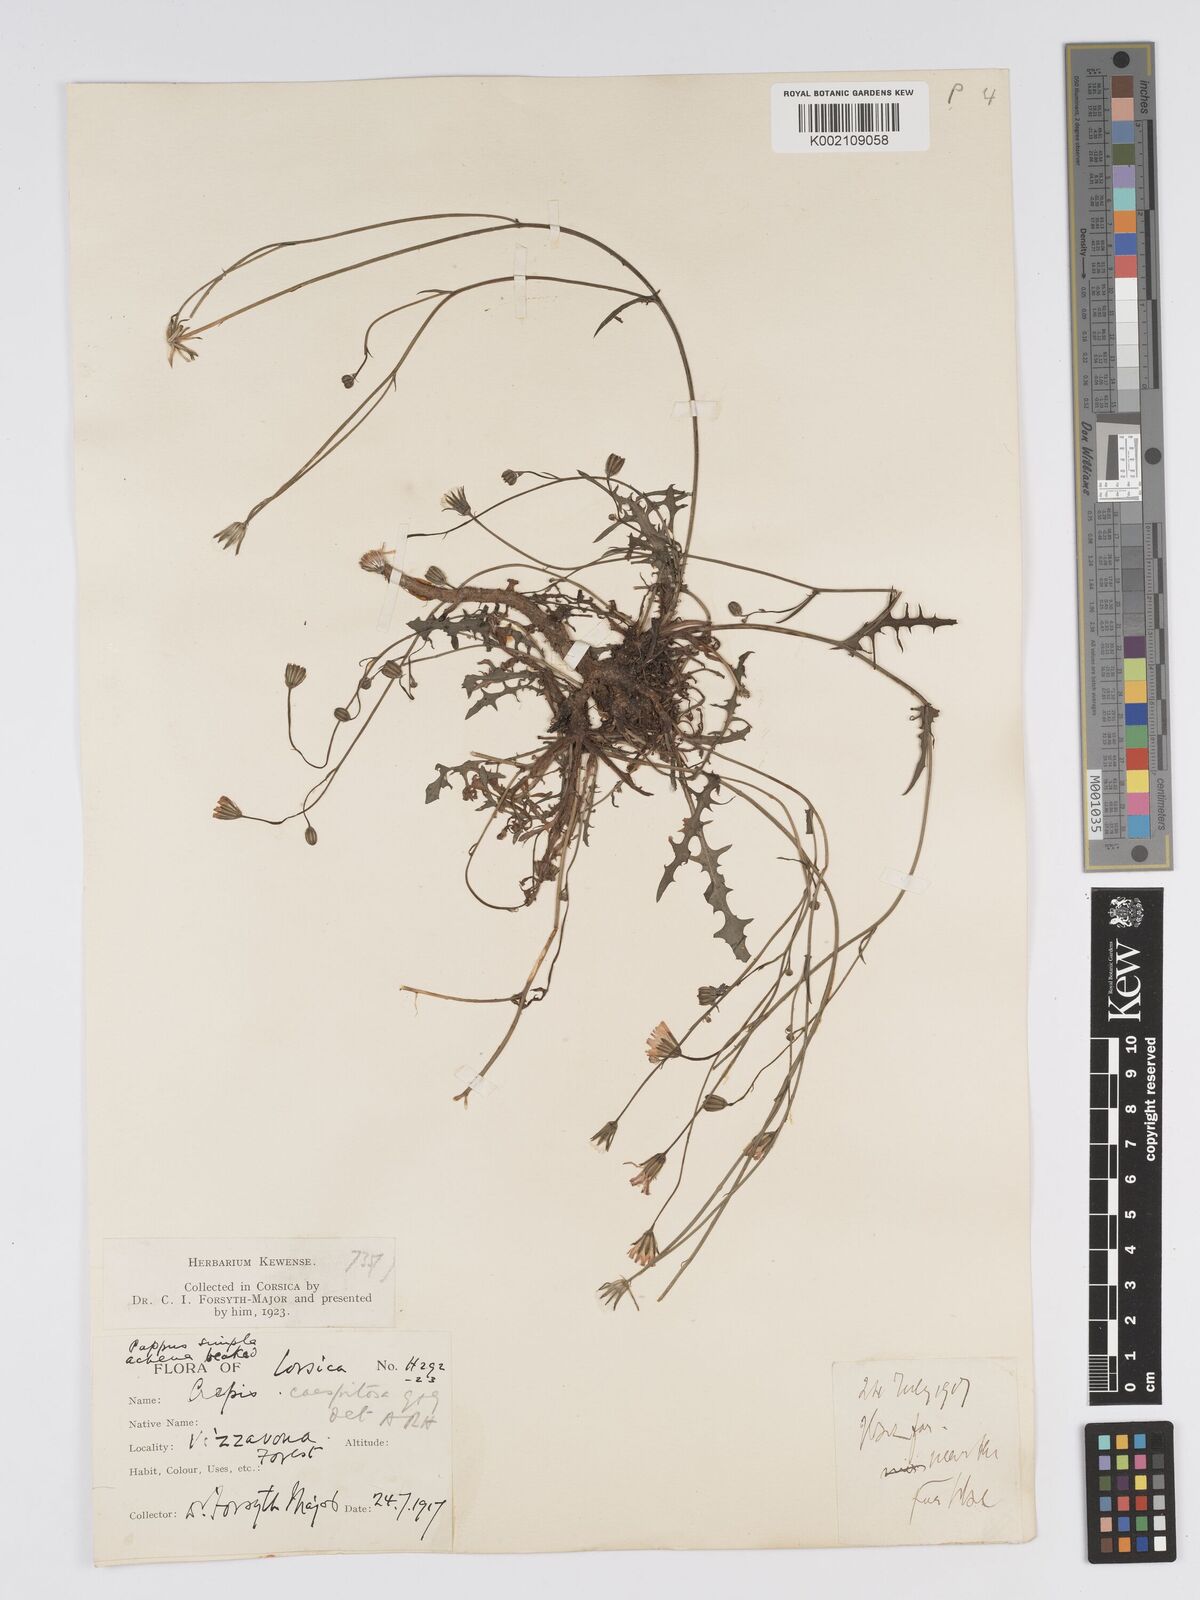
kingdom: Plantae
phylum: Tracheophyta
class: Magnoliopsida
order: Asterales
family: Asteraceae
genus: Crepis
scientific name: Crepis
